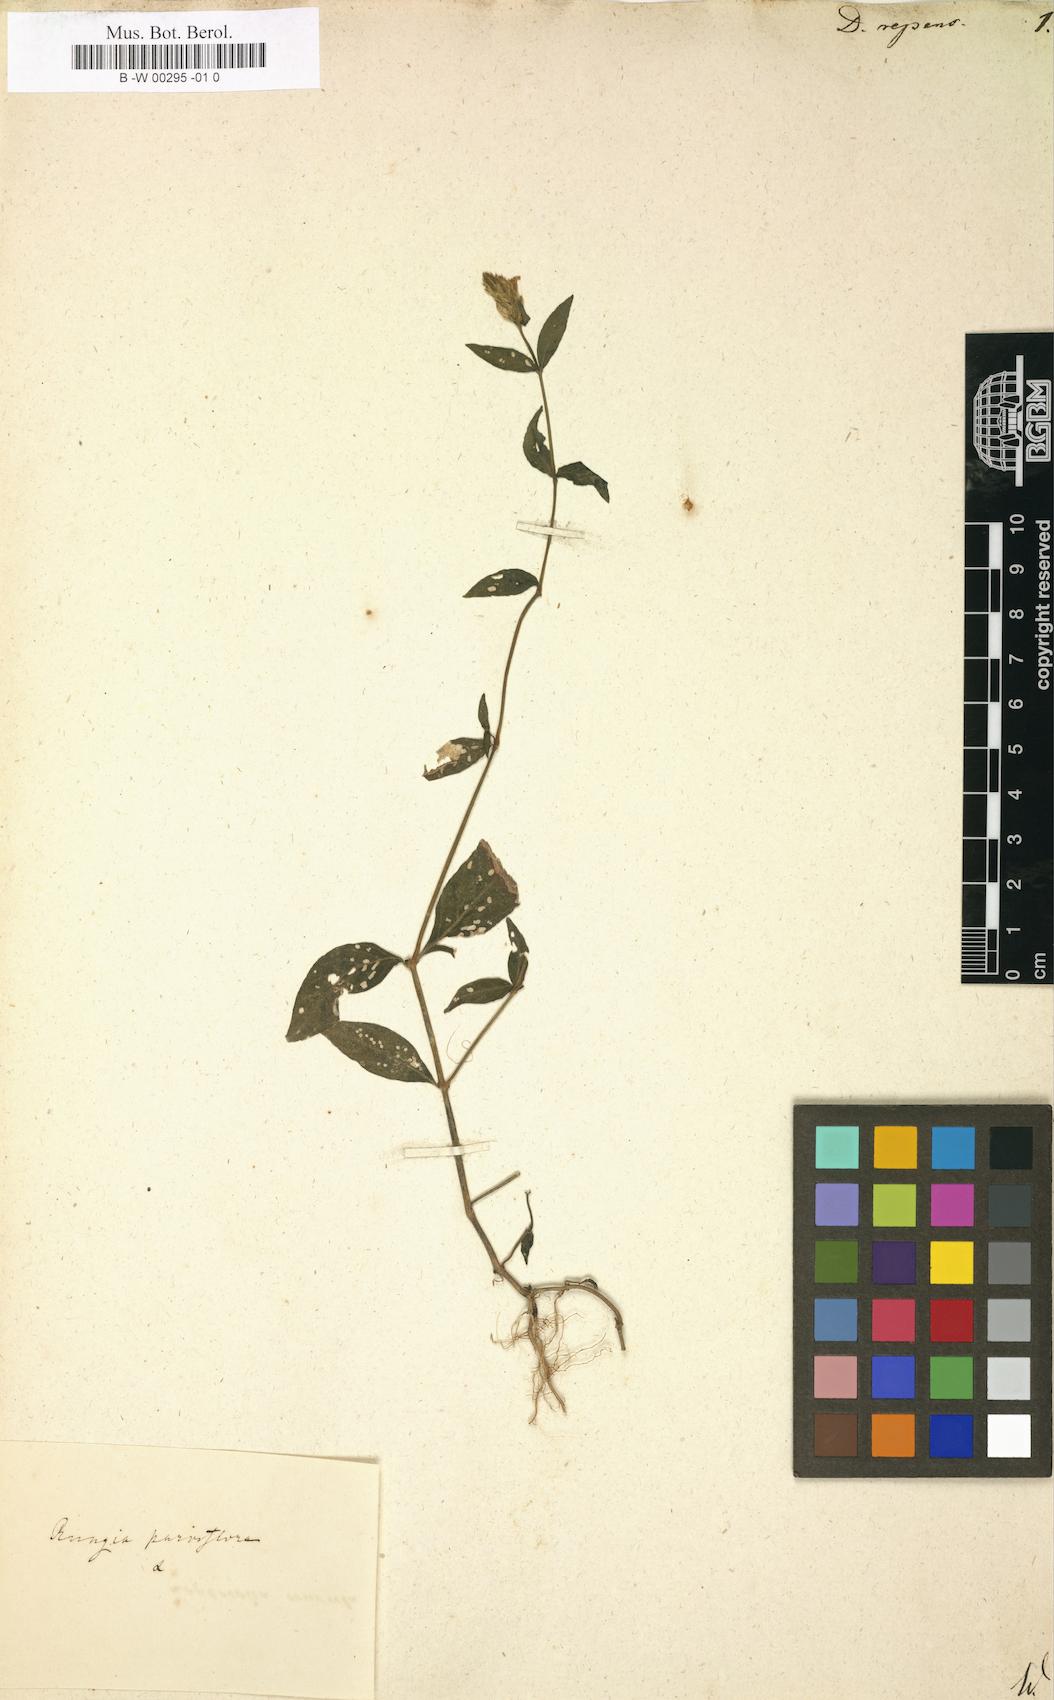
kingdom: Plantae
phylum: Tracheophyta
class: Magnoliopsida
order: Lamiales
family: Acanthaceae
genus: Rungia
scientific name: Rungia repens
